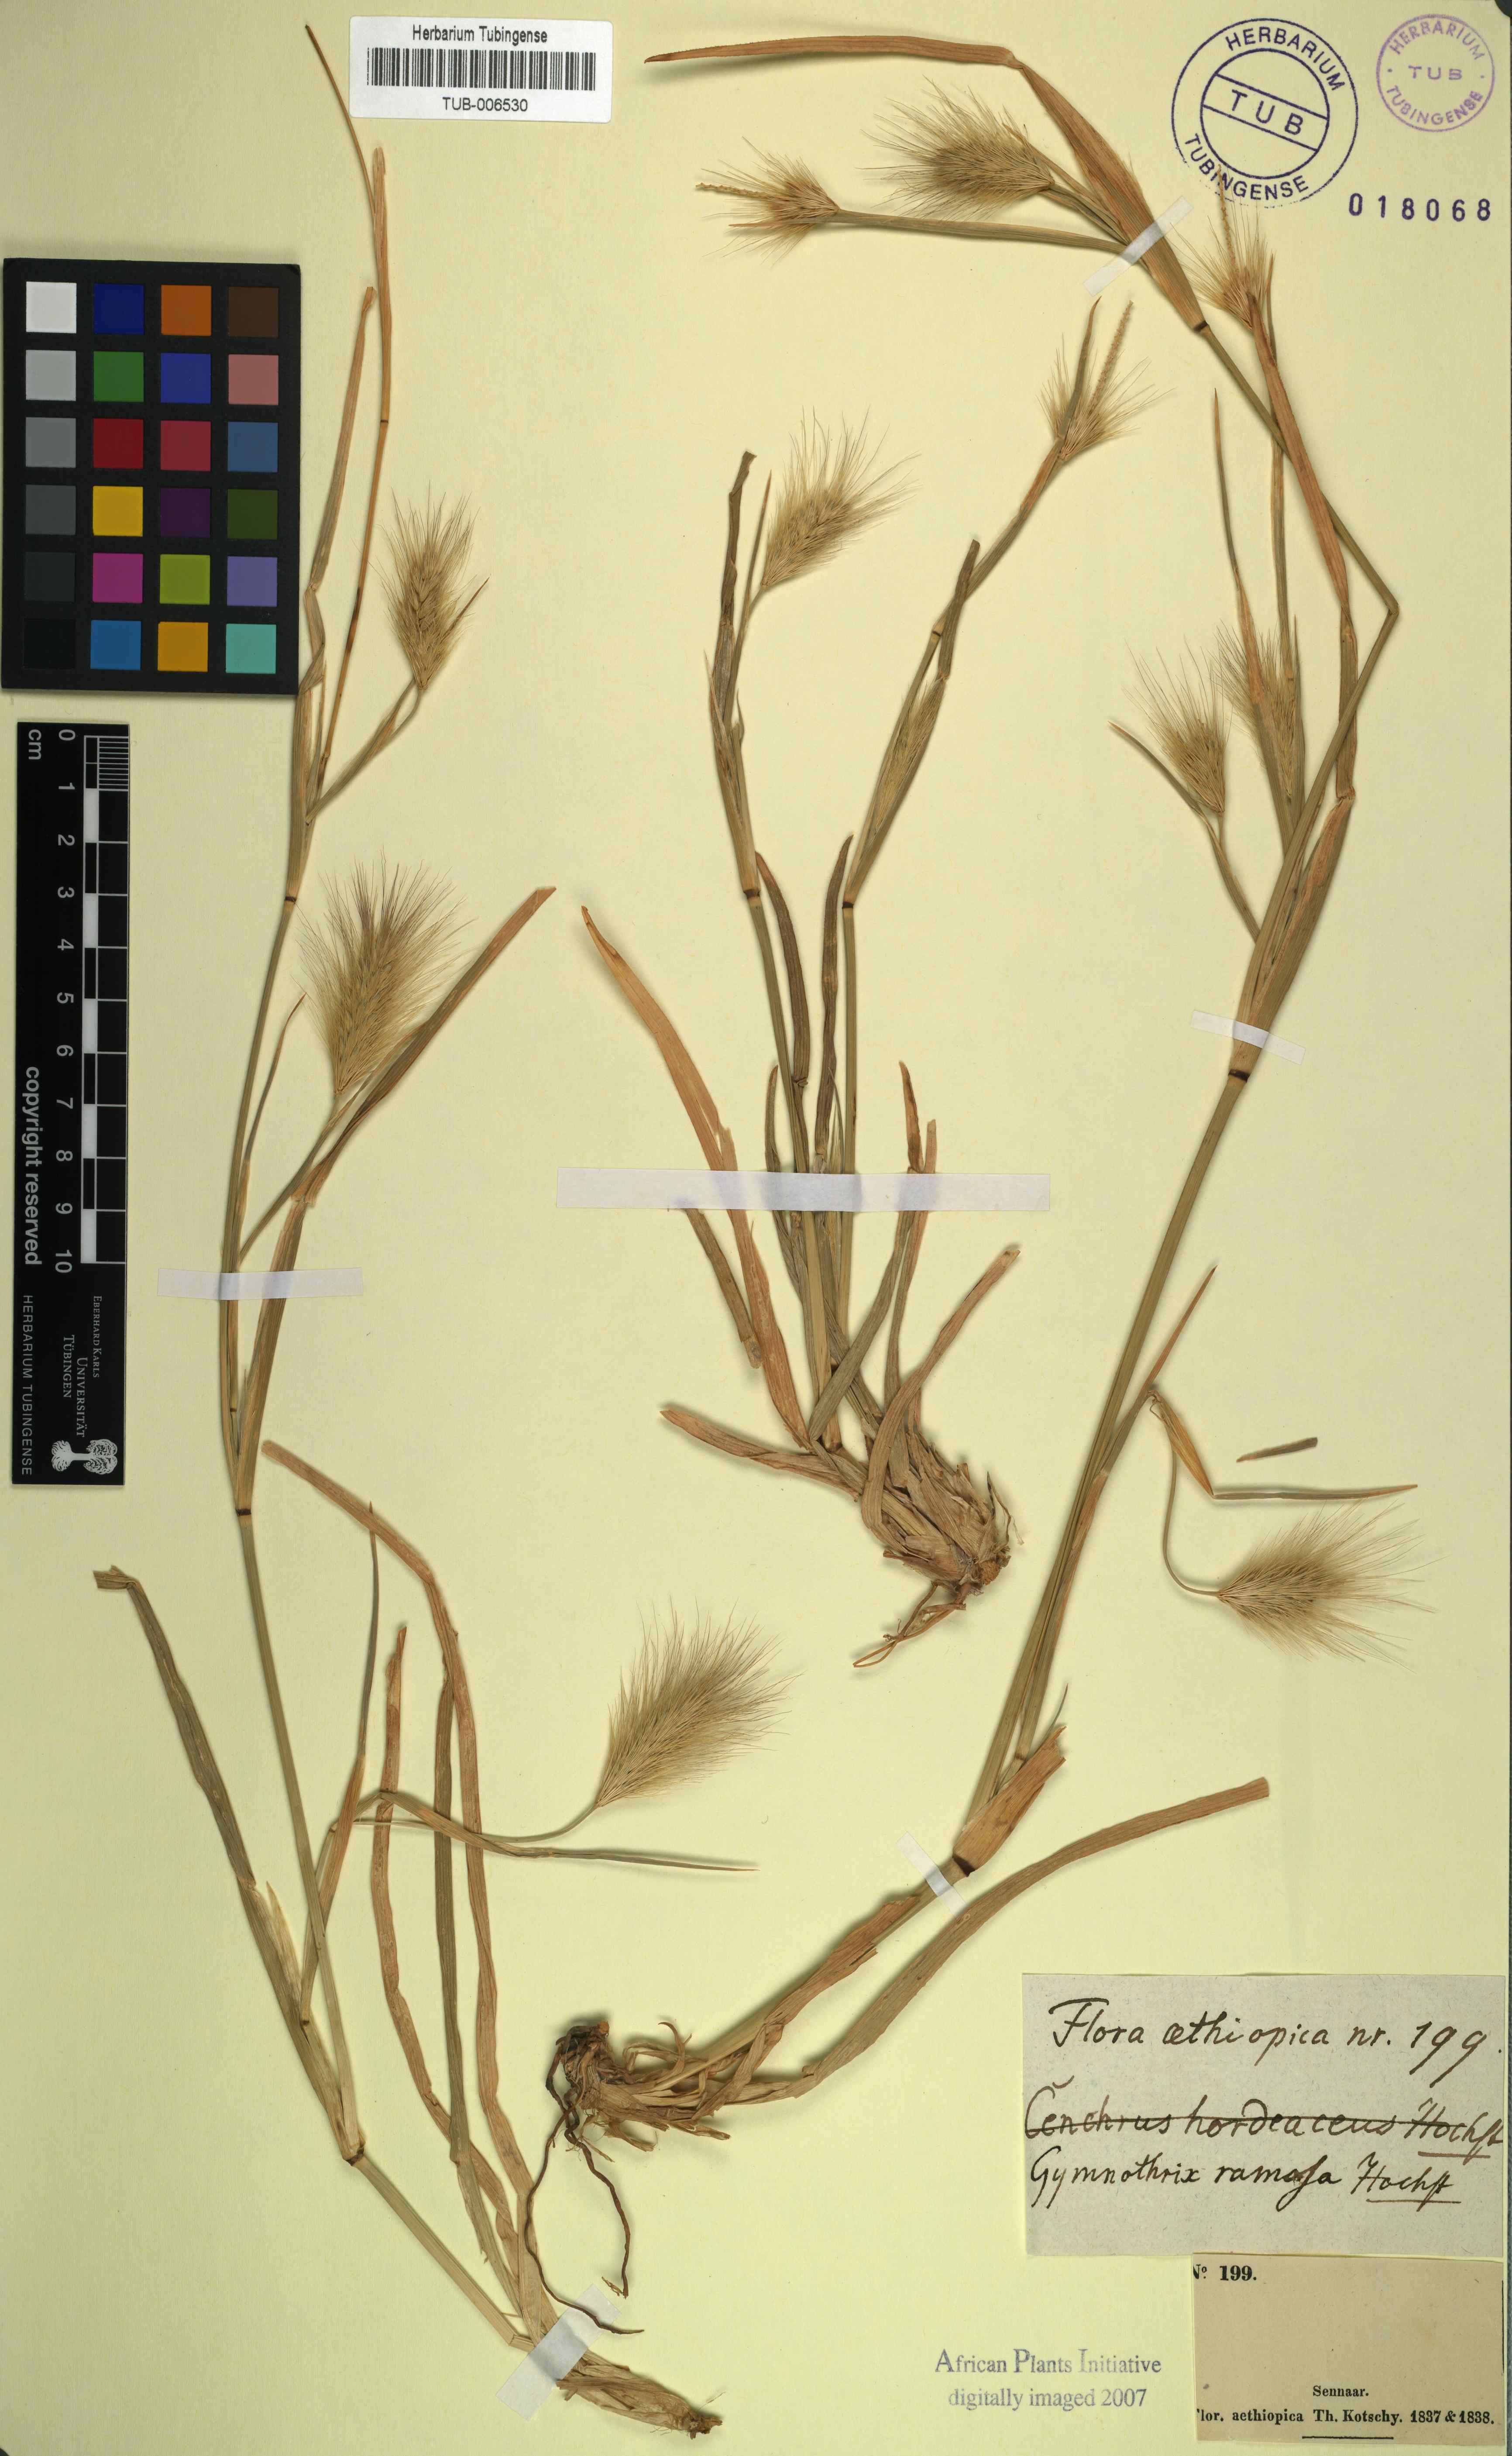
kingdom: Plantae
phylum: Tracheophyta
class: Liliopsida
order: Poales
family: Poaceae
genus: Cenchrus
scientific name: Cenchrus setosus
